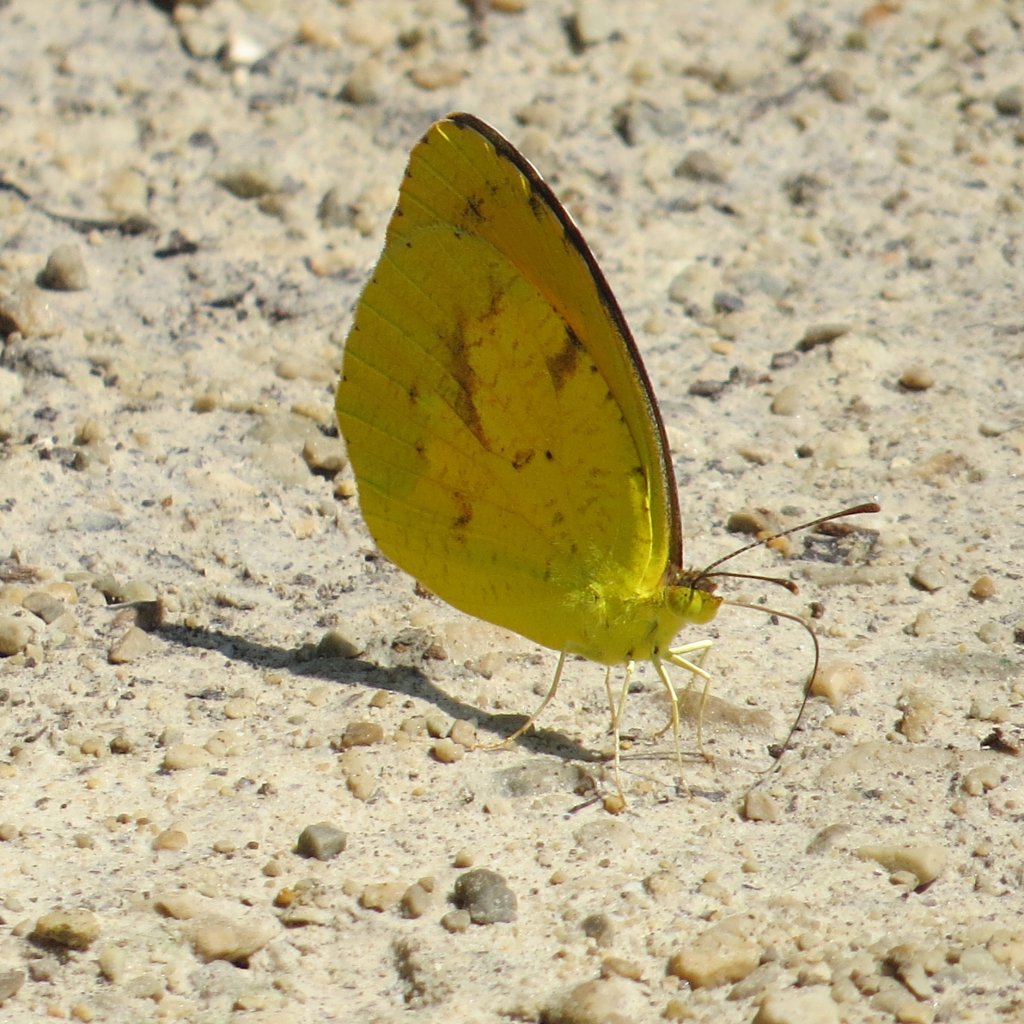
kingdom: Animalia
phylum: Arthropoda
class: Insecta
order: Lepidoptera
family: Pieridae
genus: Abaeis
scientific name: Abaeis nicippe
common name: Sleepy Orange
